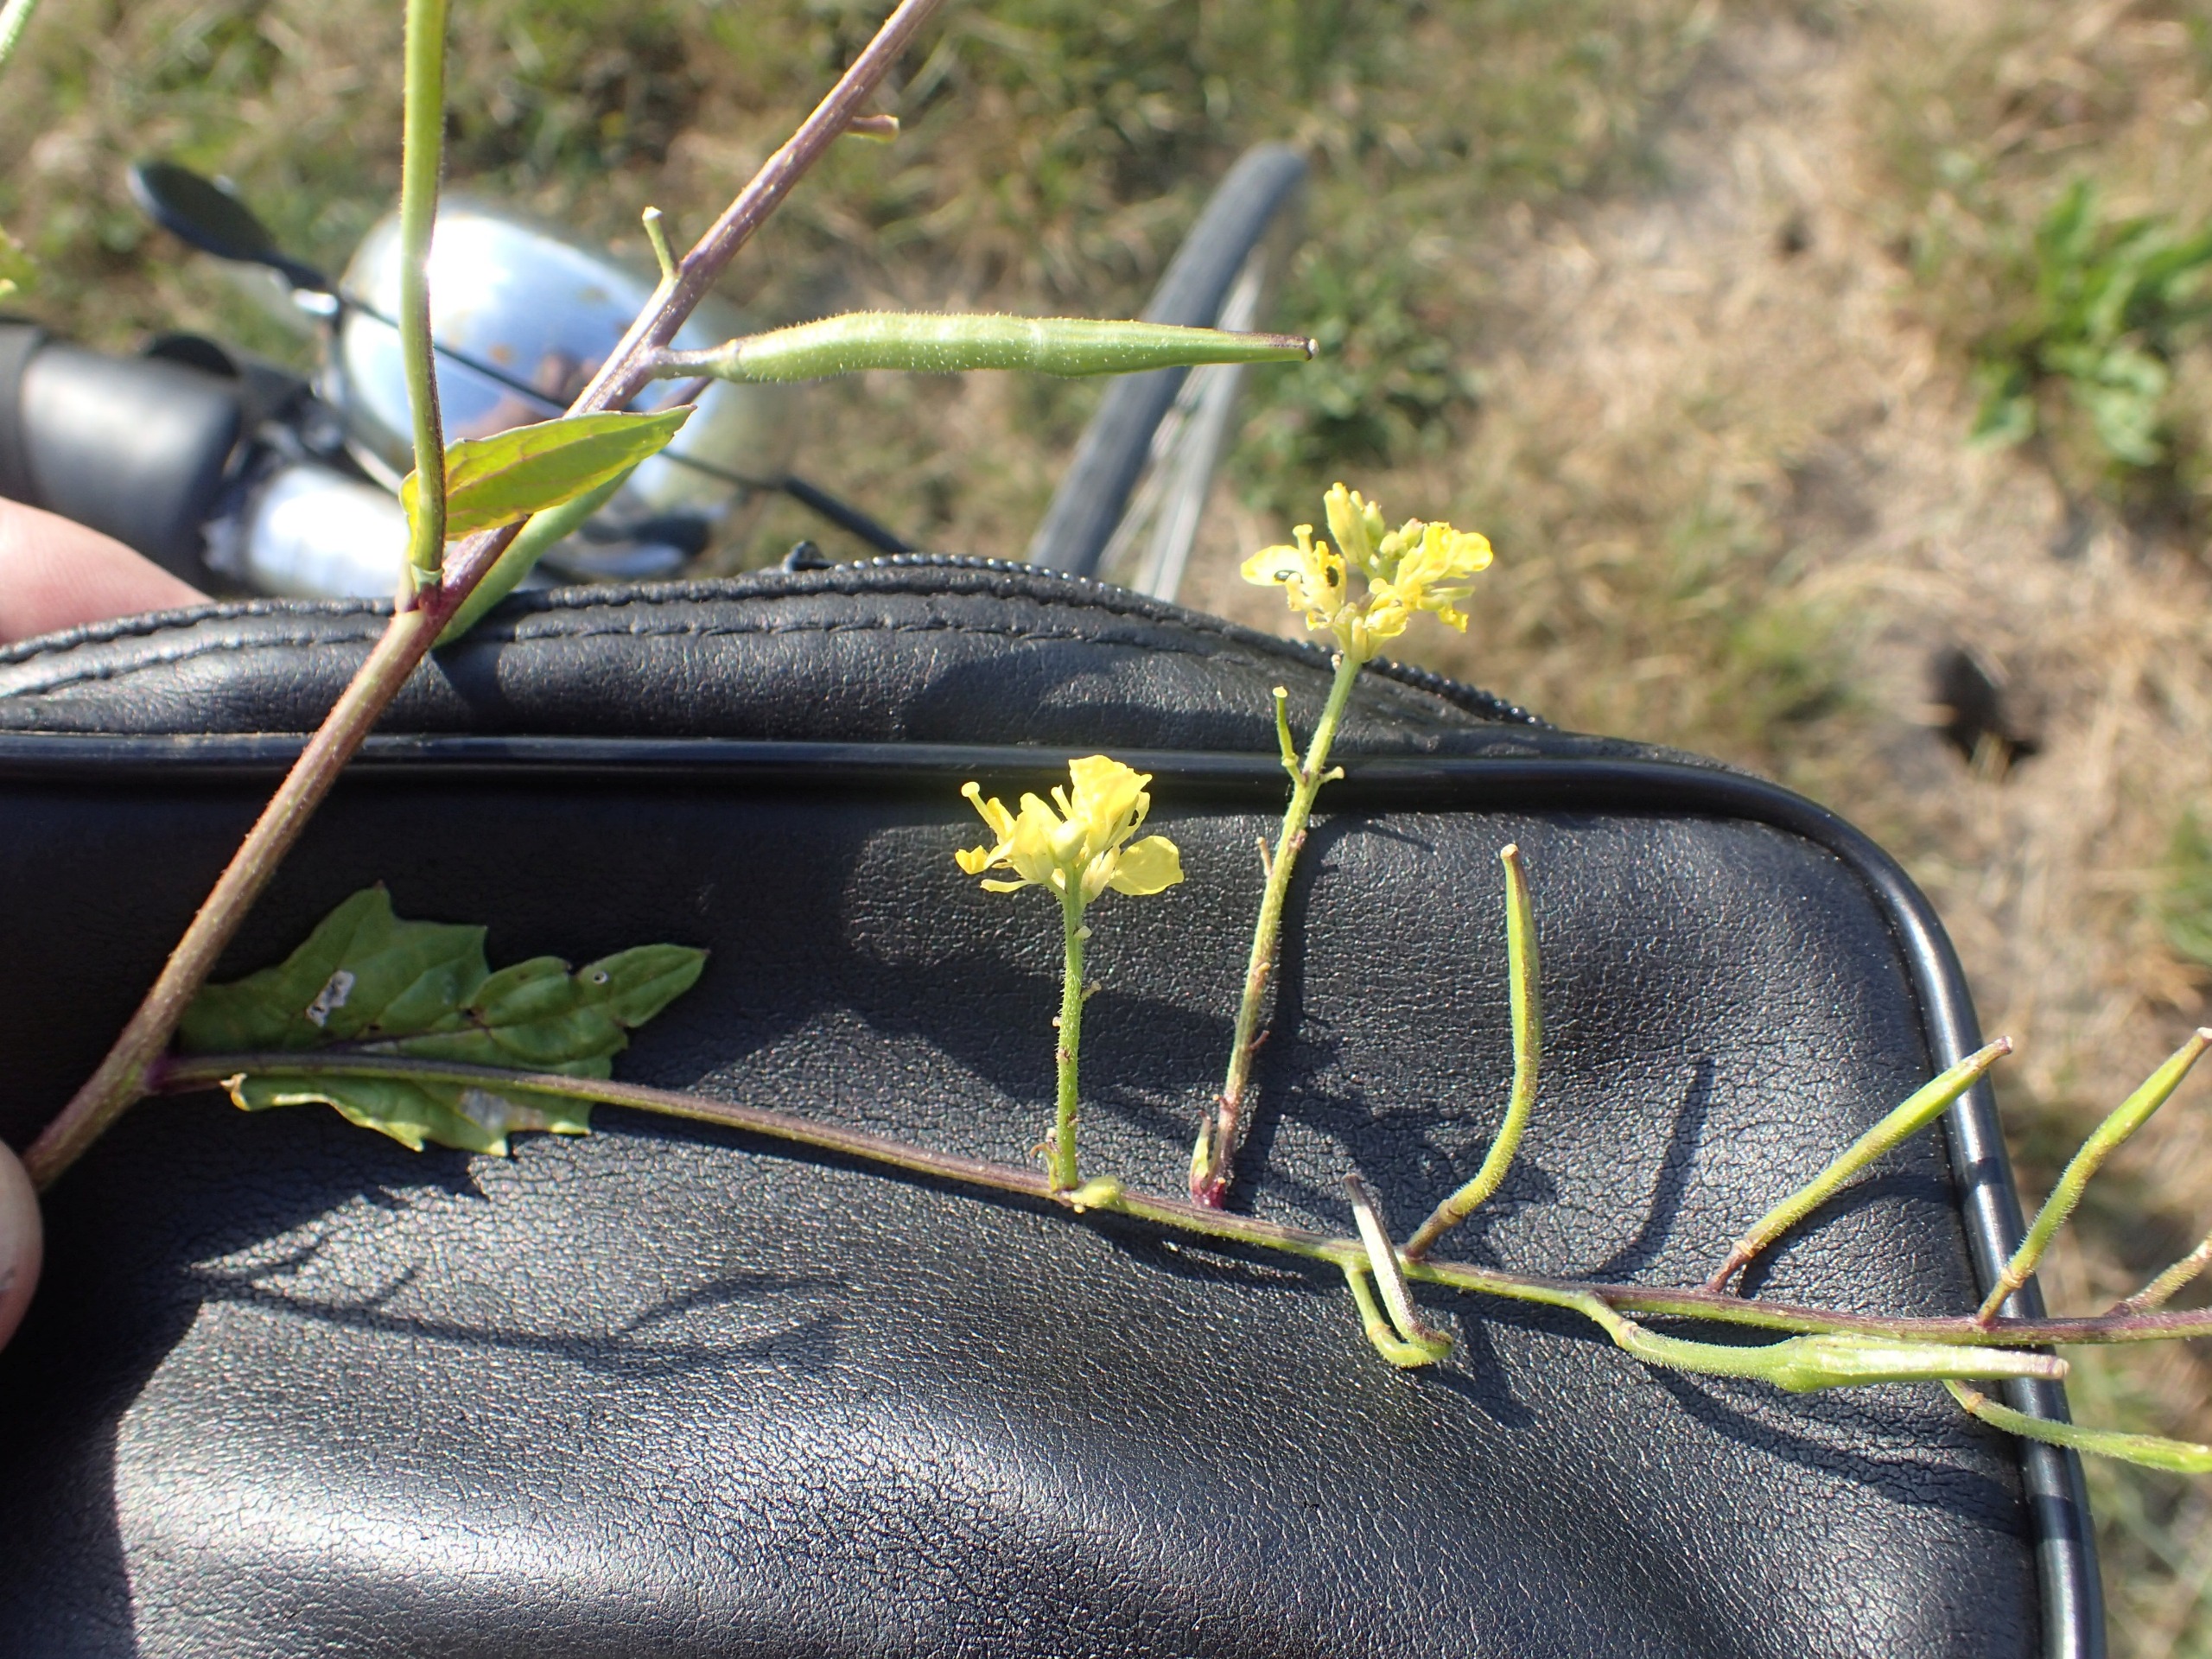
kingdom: Plantae
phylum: Tracheophyta
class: Magnoliopsida
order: Brassicales
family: Brassicaceae
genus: Sinapis
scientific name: Sinapis arvensis
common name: Ager-sennep
